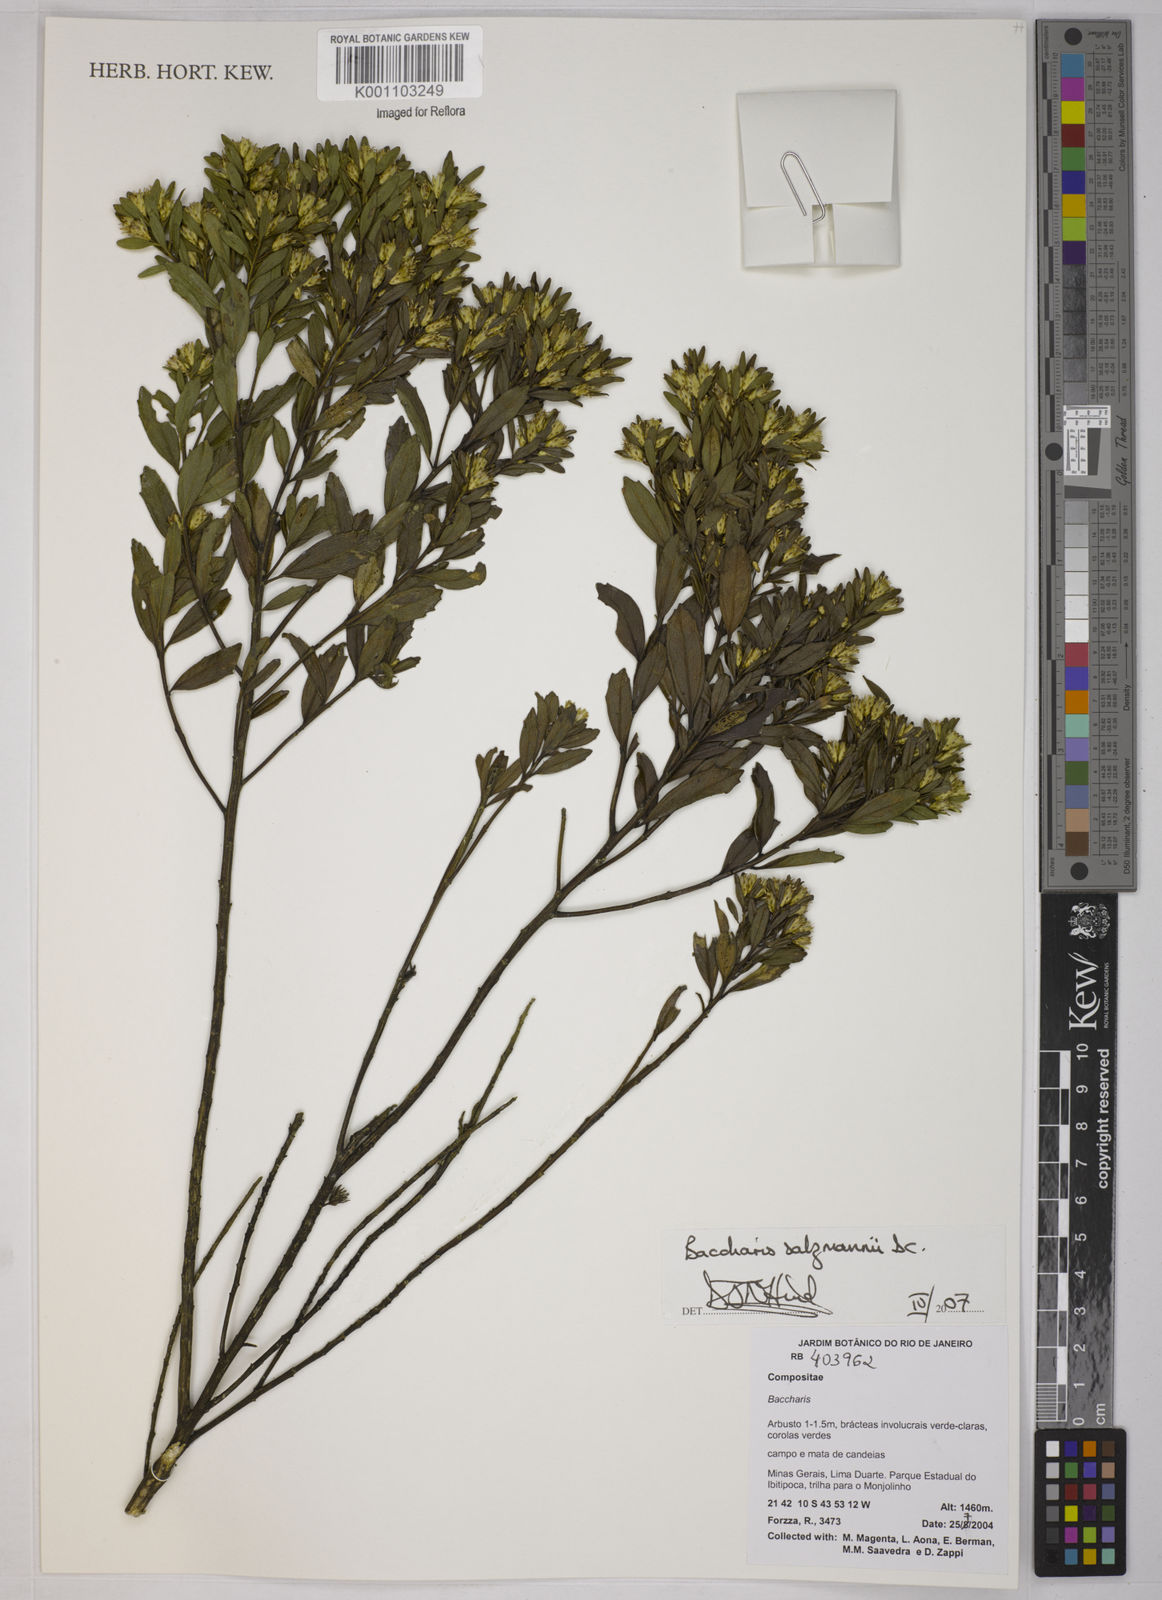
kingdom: Plantae
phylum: Tracheophyta
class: Magnoliopsida
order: Asterales
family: Asteraceae
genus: Baccharis
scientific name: Baccharis retusa
